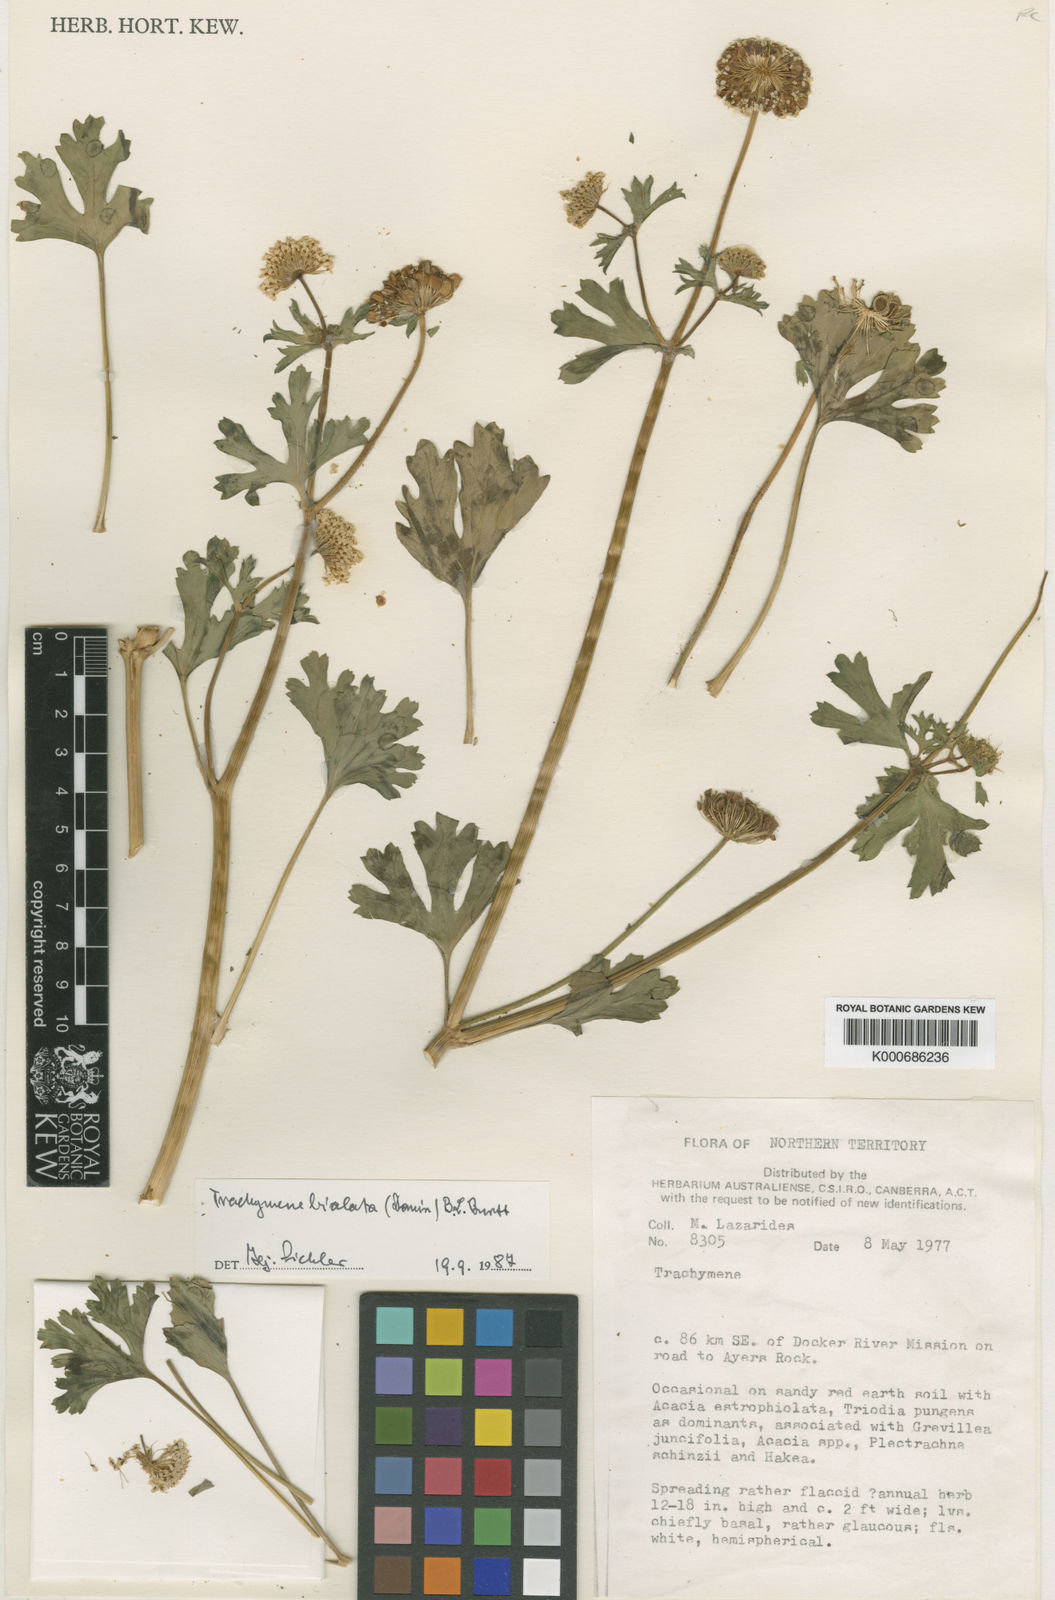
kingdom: Plantae
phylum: Tracheophyta
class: Magnoliopsida
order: Apiales
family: Araliaceae
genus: Trachymene
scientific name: Trachymene bialata
